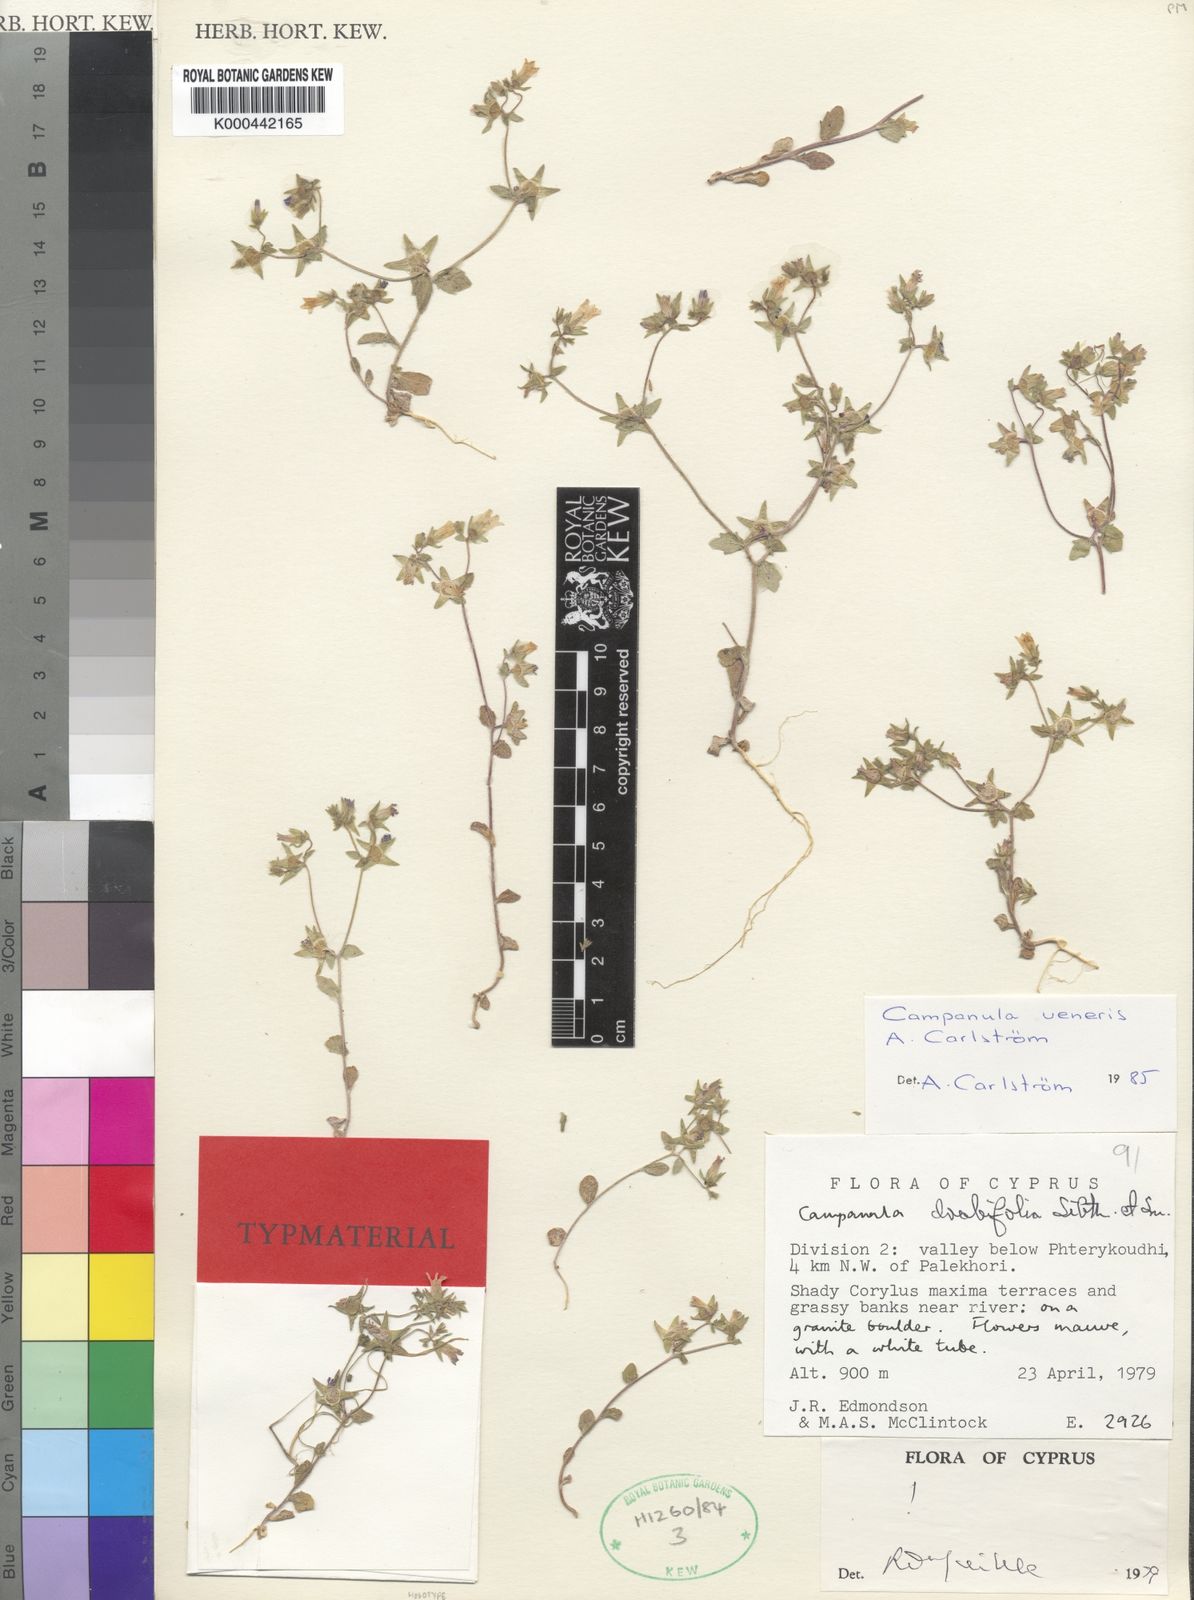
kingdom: Plantae
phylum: Tracheophyta
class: Magnoliopsida
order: Asterales
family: Campanulaceae
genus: Campanula
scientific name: Campanula
